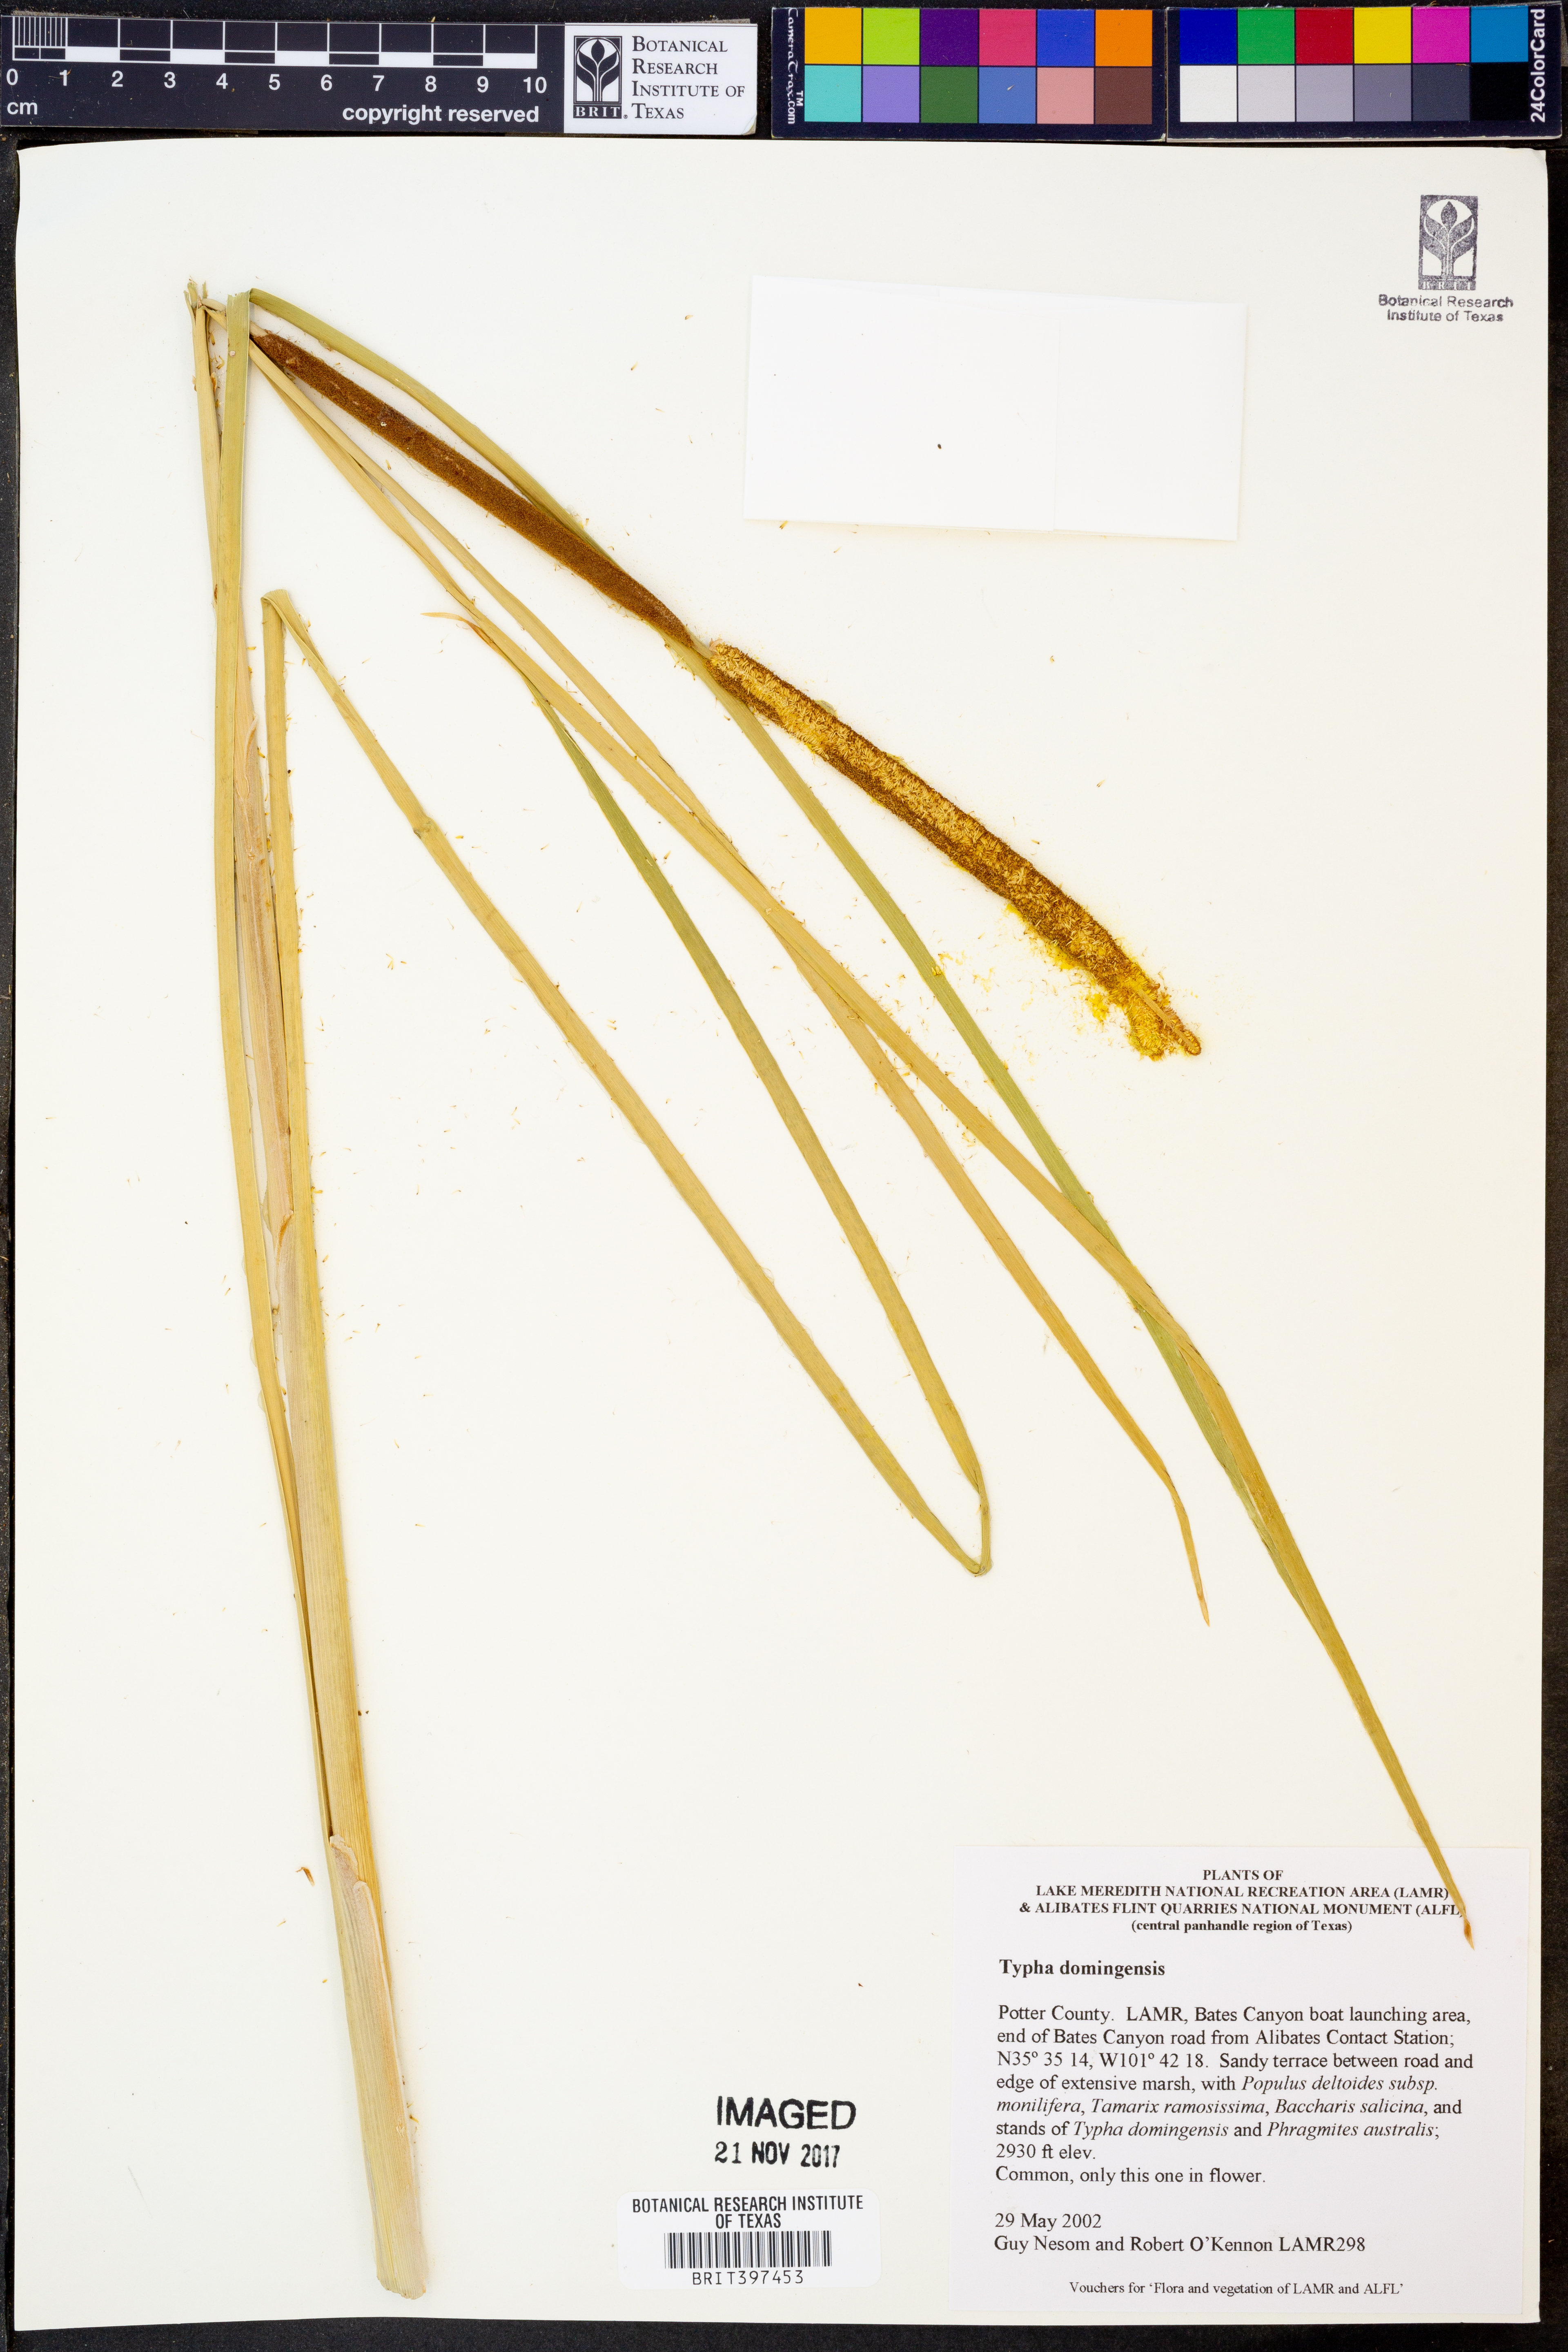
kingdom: Plantae
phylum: Tracheophyta
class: Liliopsida
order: Poales
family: Typhaceae
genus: Typha
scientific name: Typha domingensis
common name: Southern cattail
